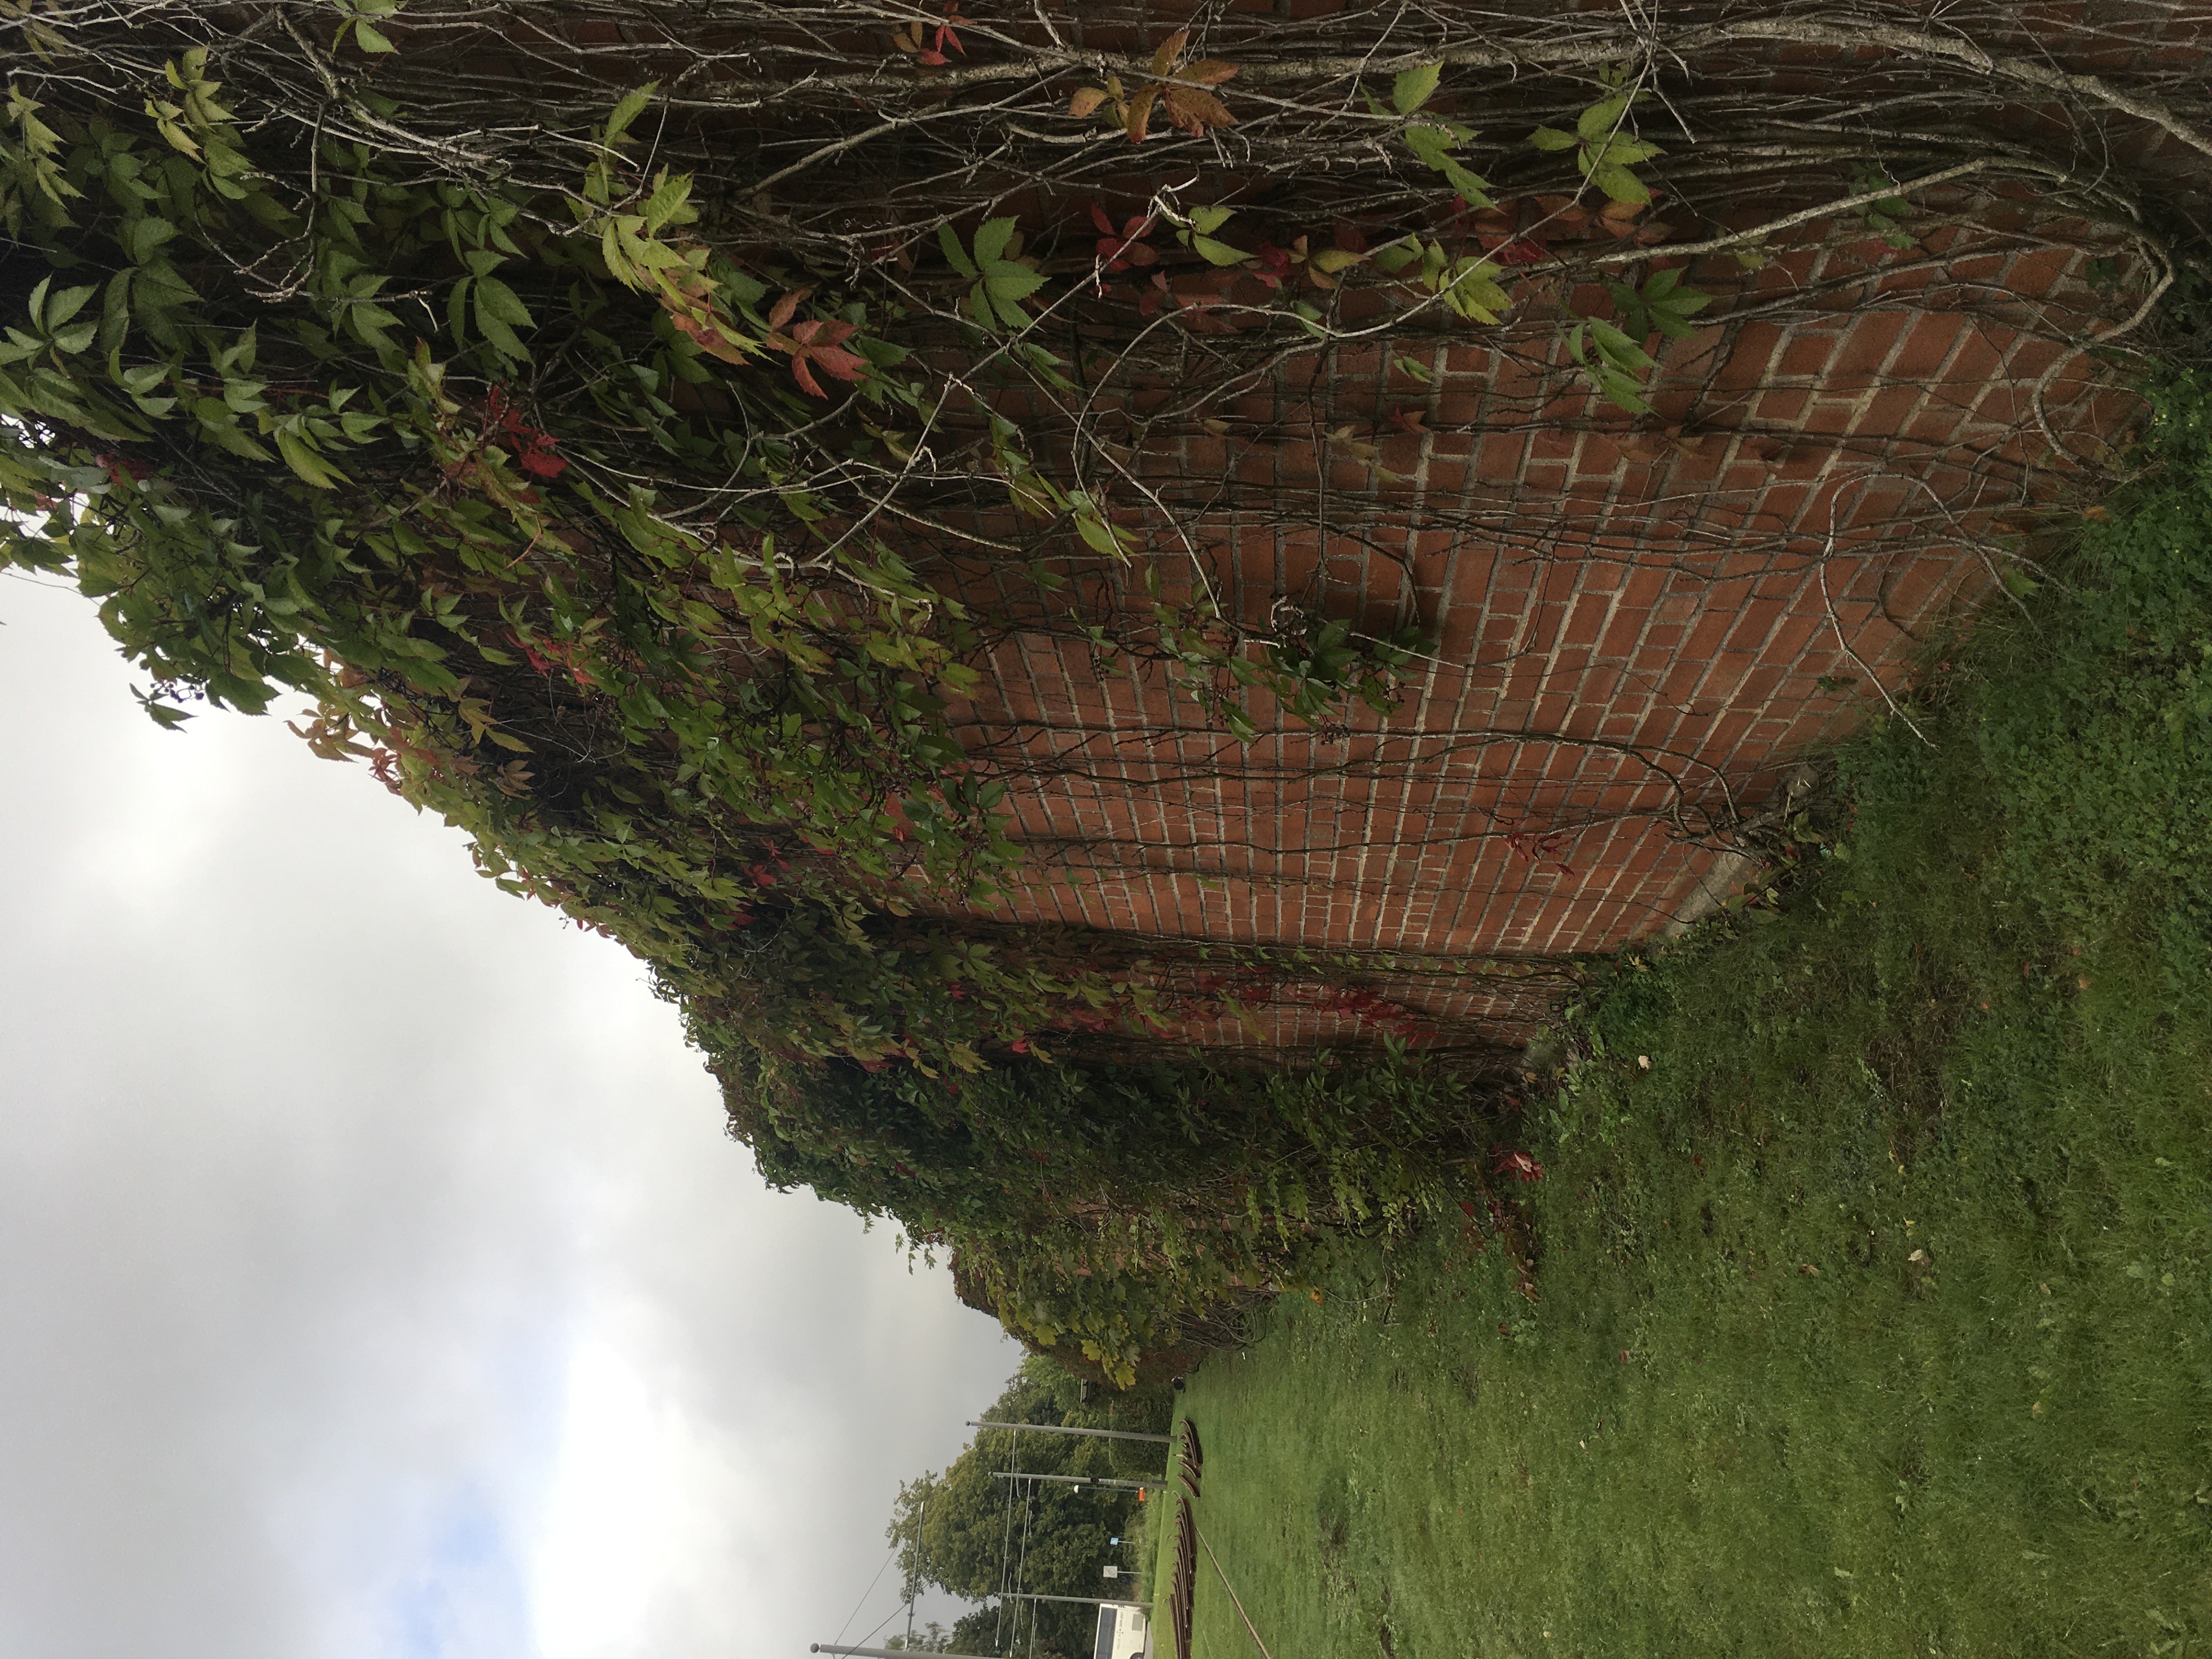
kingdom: Plantae
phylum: Tracheophyta
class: Magnoliopsida
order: Vitales
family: Vitaceae
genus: Parthenocissus
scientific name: Parthenocissus quinquefolia
